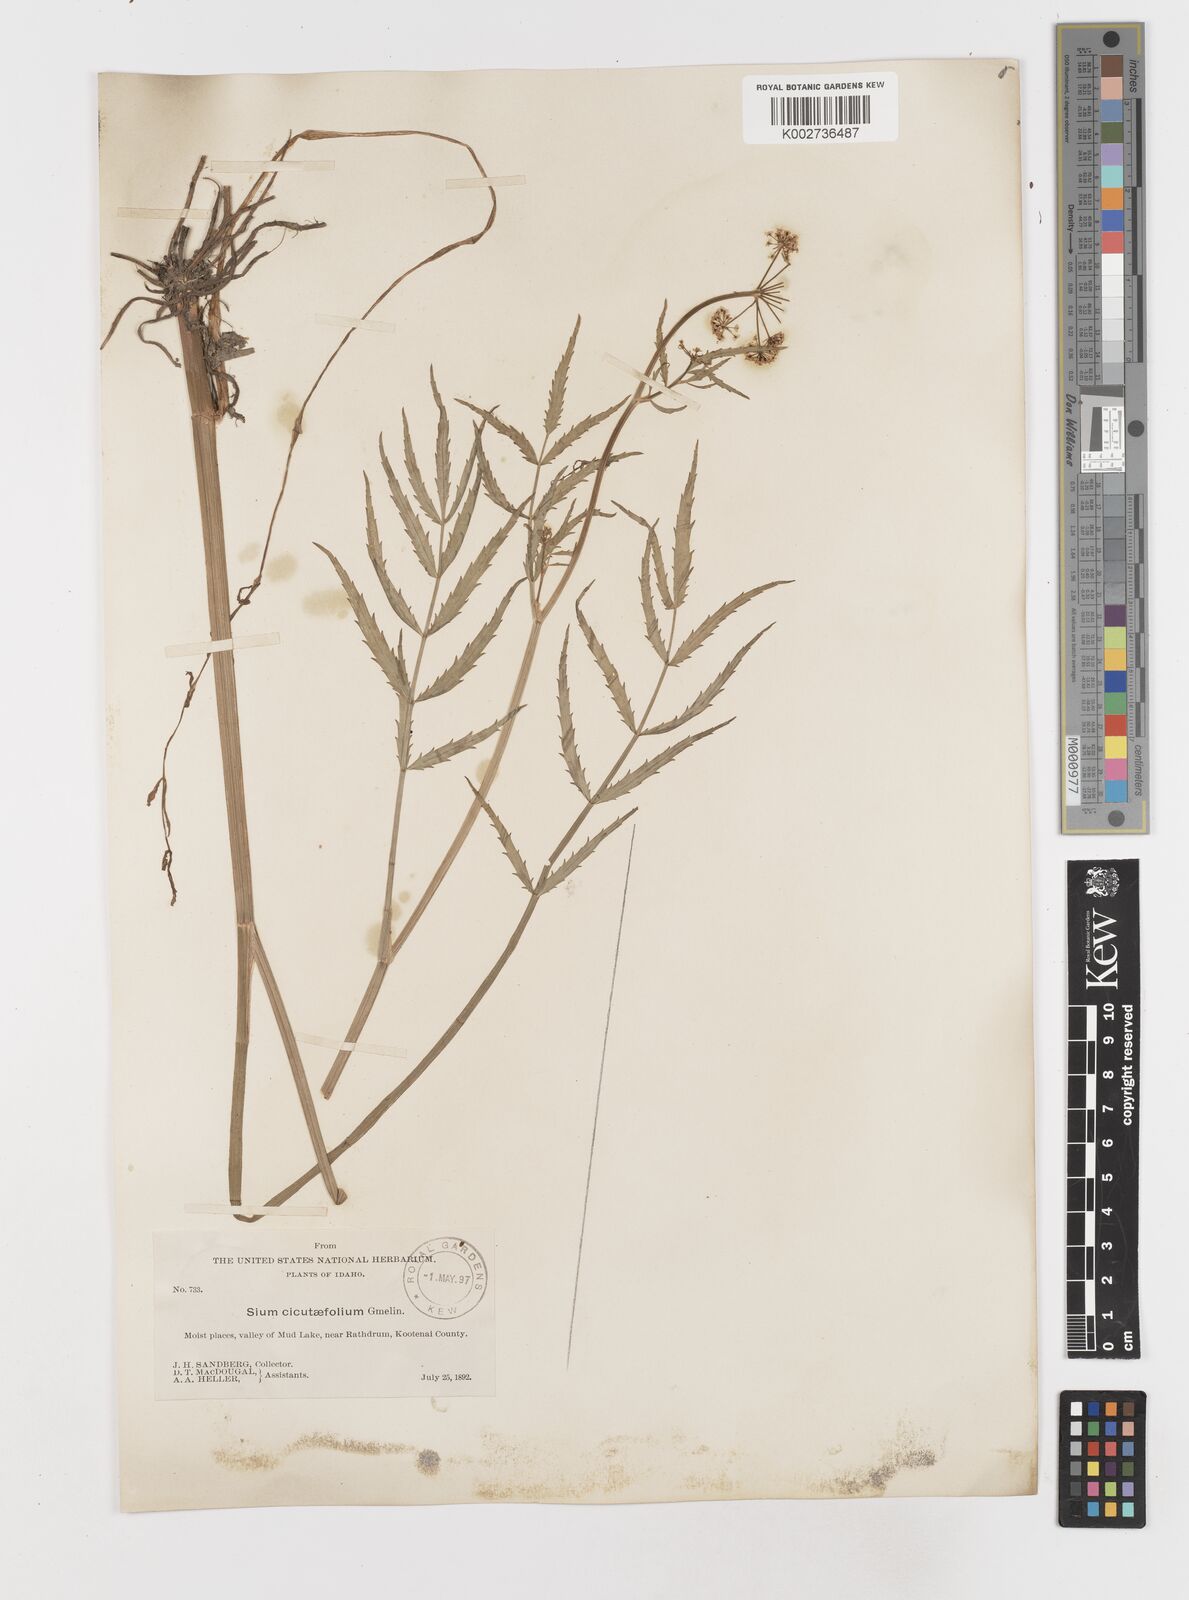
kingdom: Plantae
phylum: Tracheophyta
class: Magnoliopsida
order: Apiales
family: Apiaceae
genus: Sium
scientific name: Sium suave
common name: Hemlock water-parsnip
